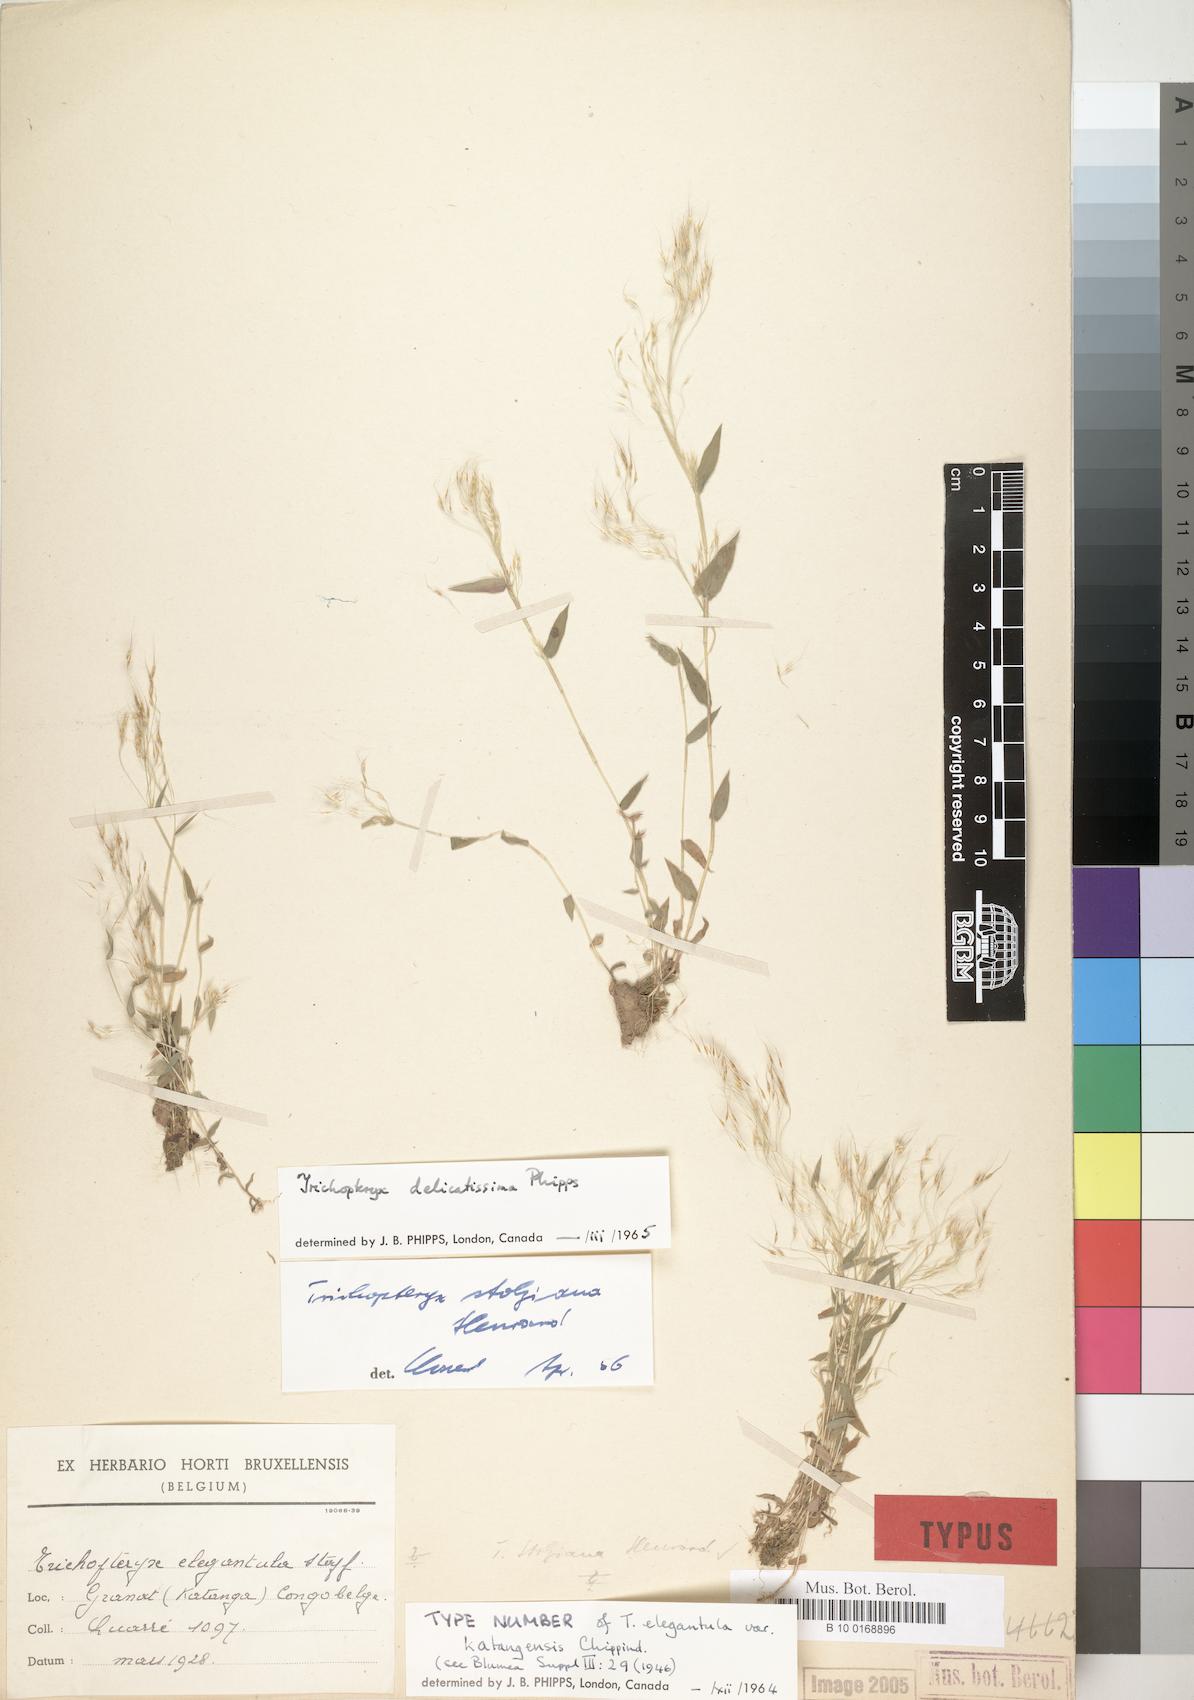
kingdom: Plantae
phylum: Tracheophyta
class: Liliopsida
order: Poales
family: Poaceae
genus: Trichopteryx
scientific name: Trichopteryx elegantula
